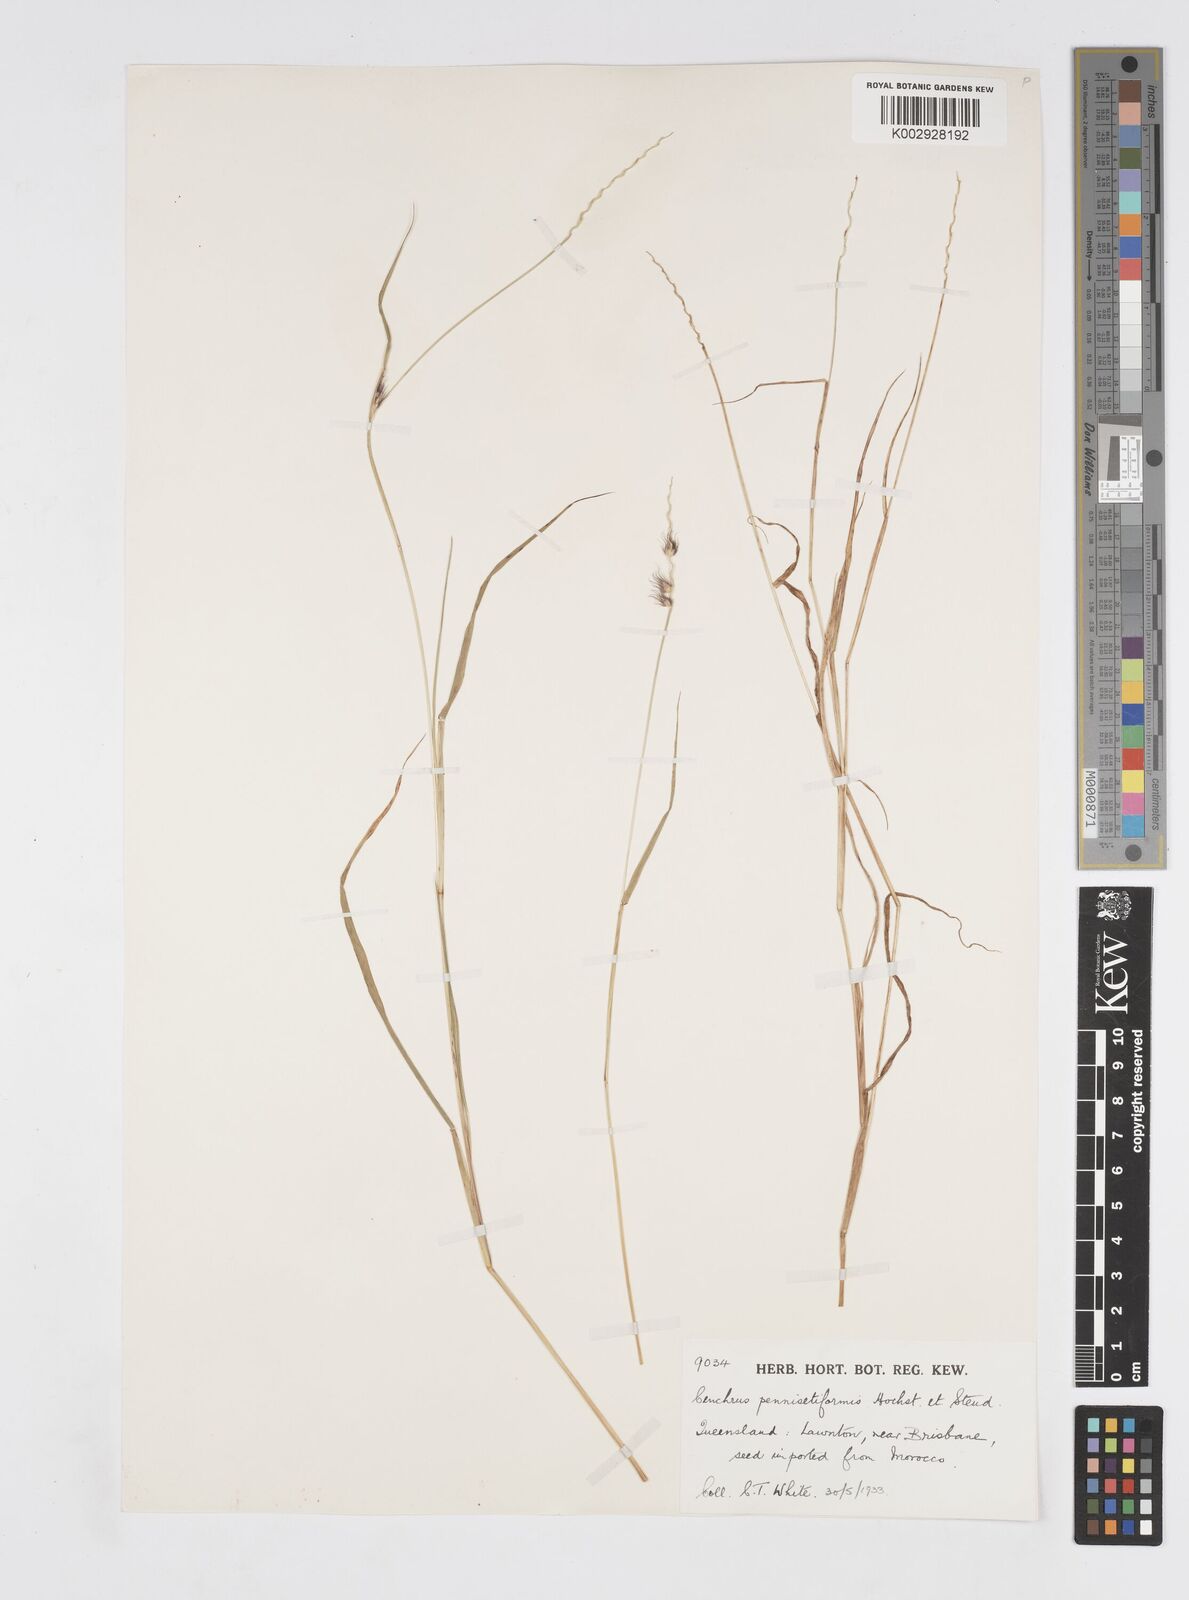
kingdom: Plantae
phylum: Tracheophyta
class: Liliopsida
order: Poales
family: Poaceae
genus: Cenchrus
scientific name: Cenchrus pennisetiformis
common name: Cloncurry
